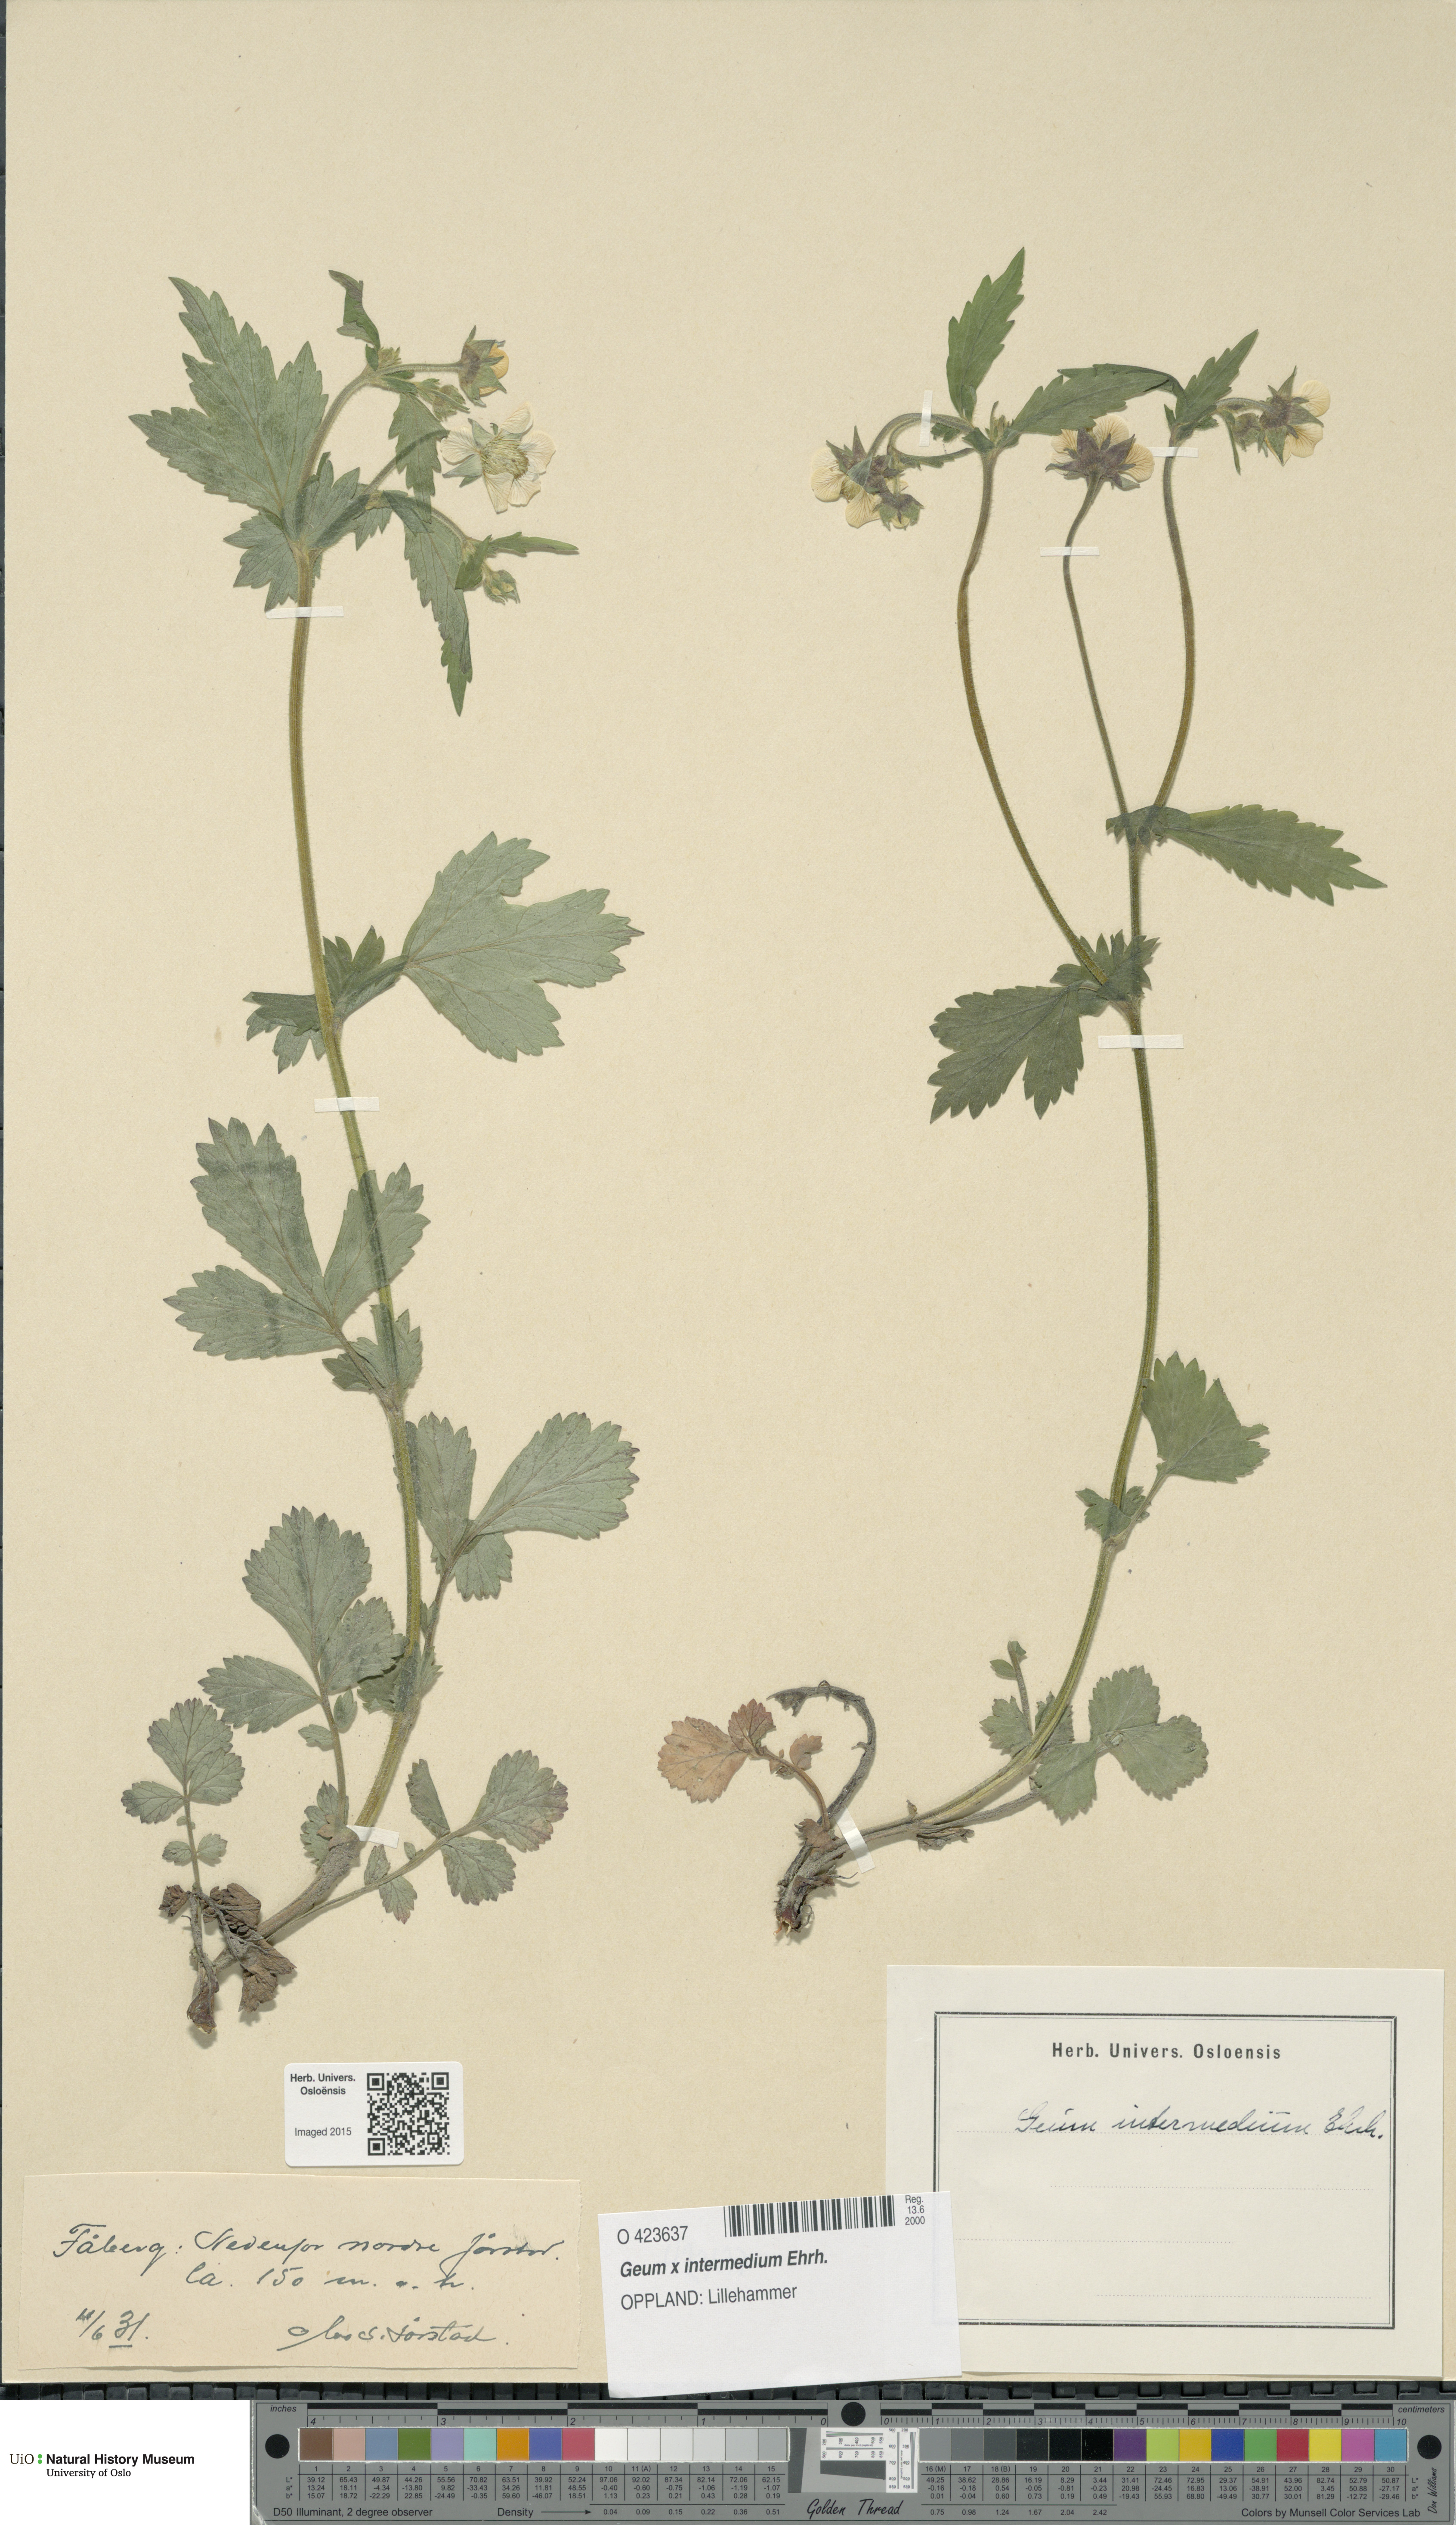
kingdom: Plantae
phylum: Tracheophyta
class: Magnoliopsida
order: Rosales
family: Rosaceae
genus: Geum
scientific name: Geum intermedium
